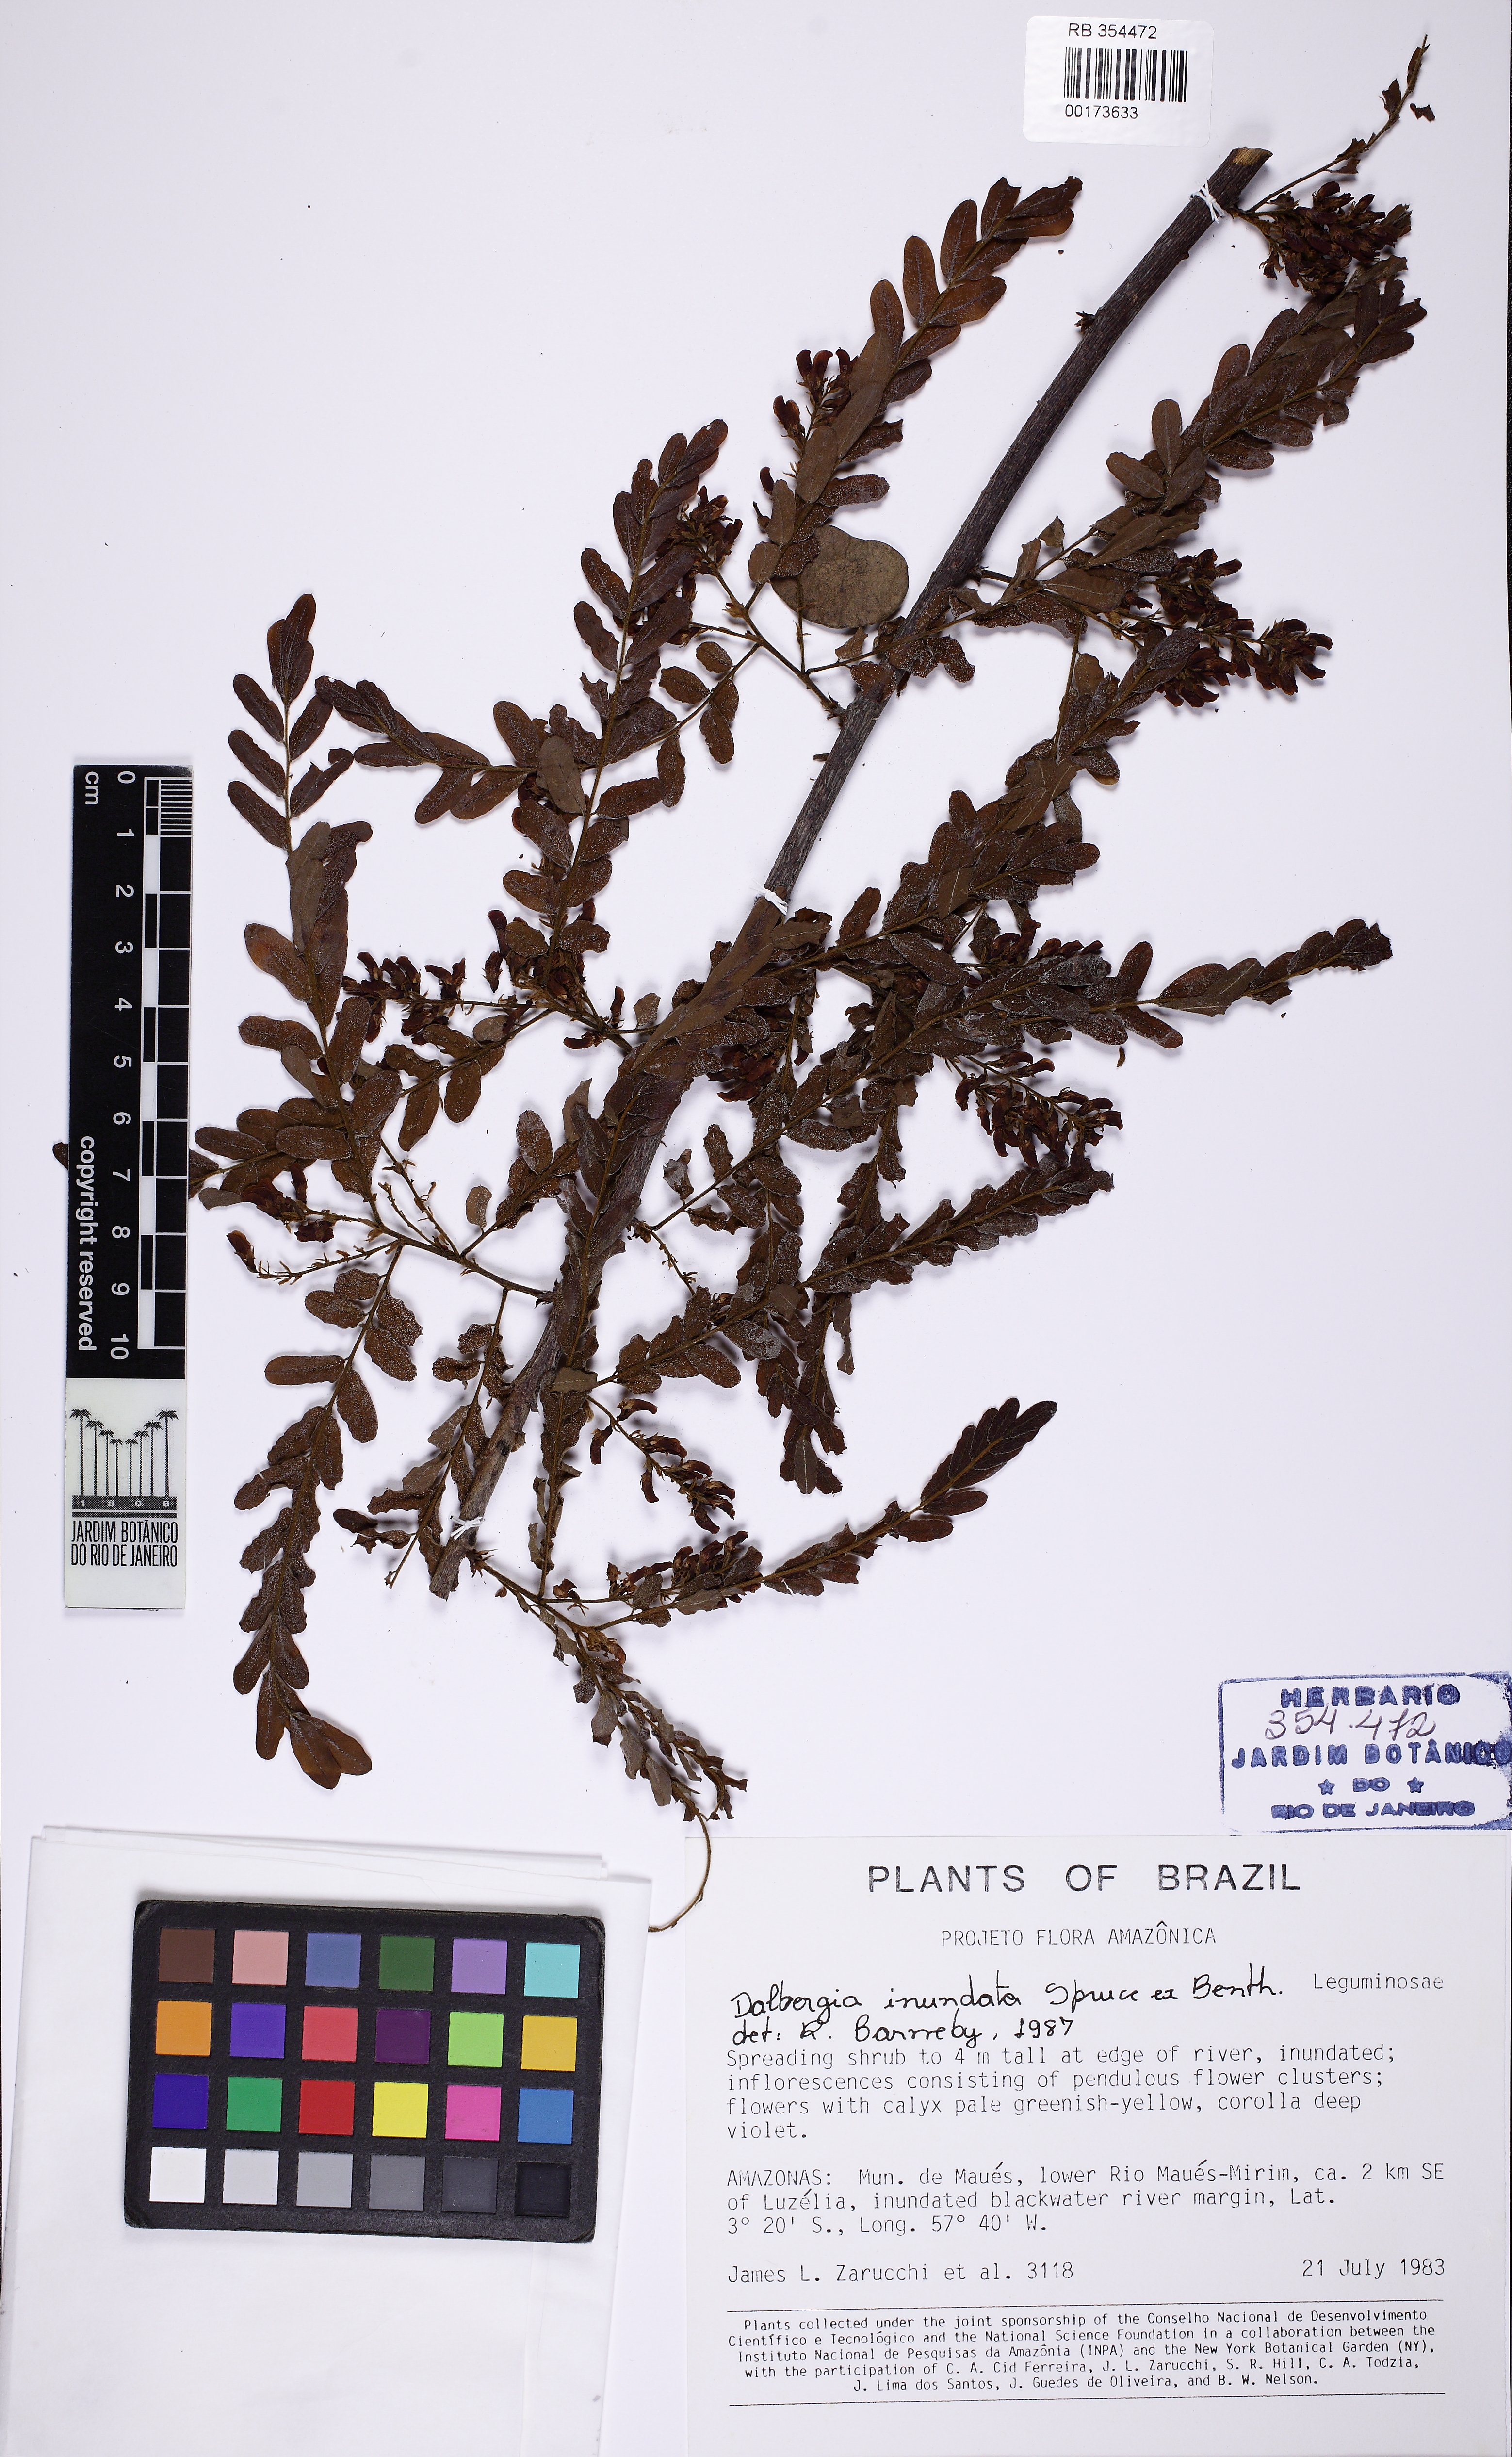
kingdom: Plantae
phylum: Tracheophyta
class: Magnoliopsida
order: Fabales
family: Fabaceae
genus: Dalbergia
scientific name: Dalbergia inundata
